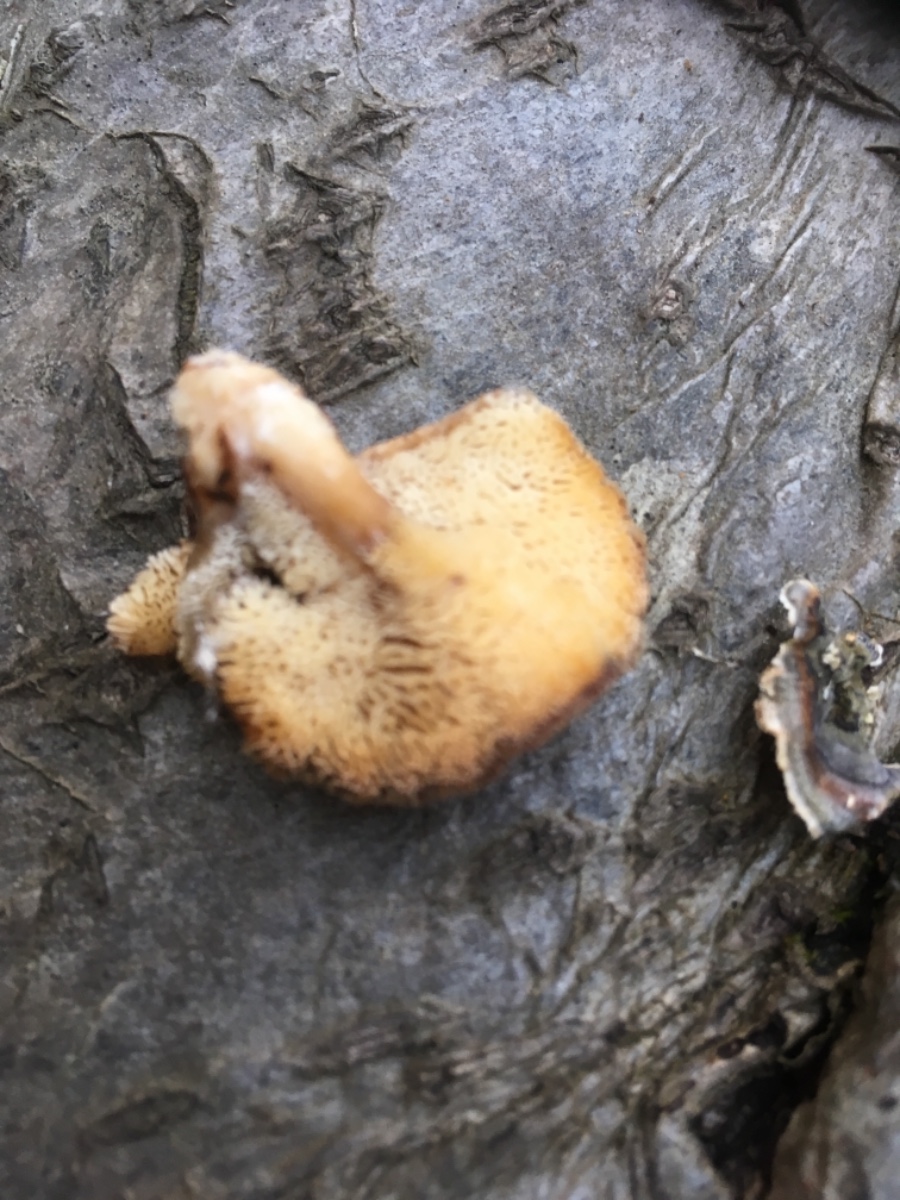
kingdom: Fungi
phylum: Basidiomycota
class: Agaricomycetes
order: Polyporales
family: Polyporaceae
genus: Lentinus
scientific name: Lentinus brumalis
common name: vinter-stilkporesvamp
